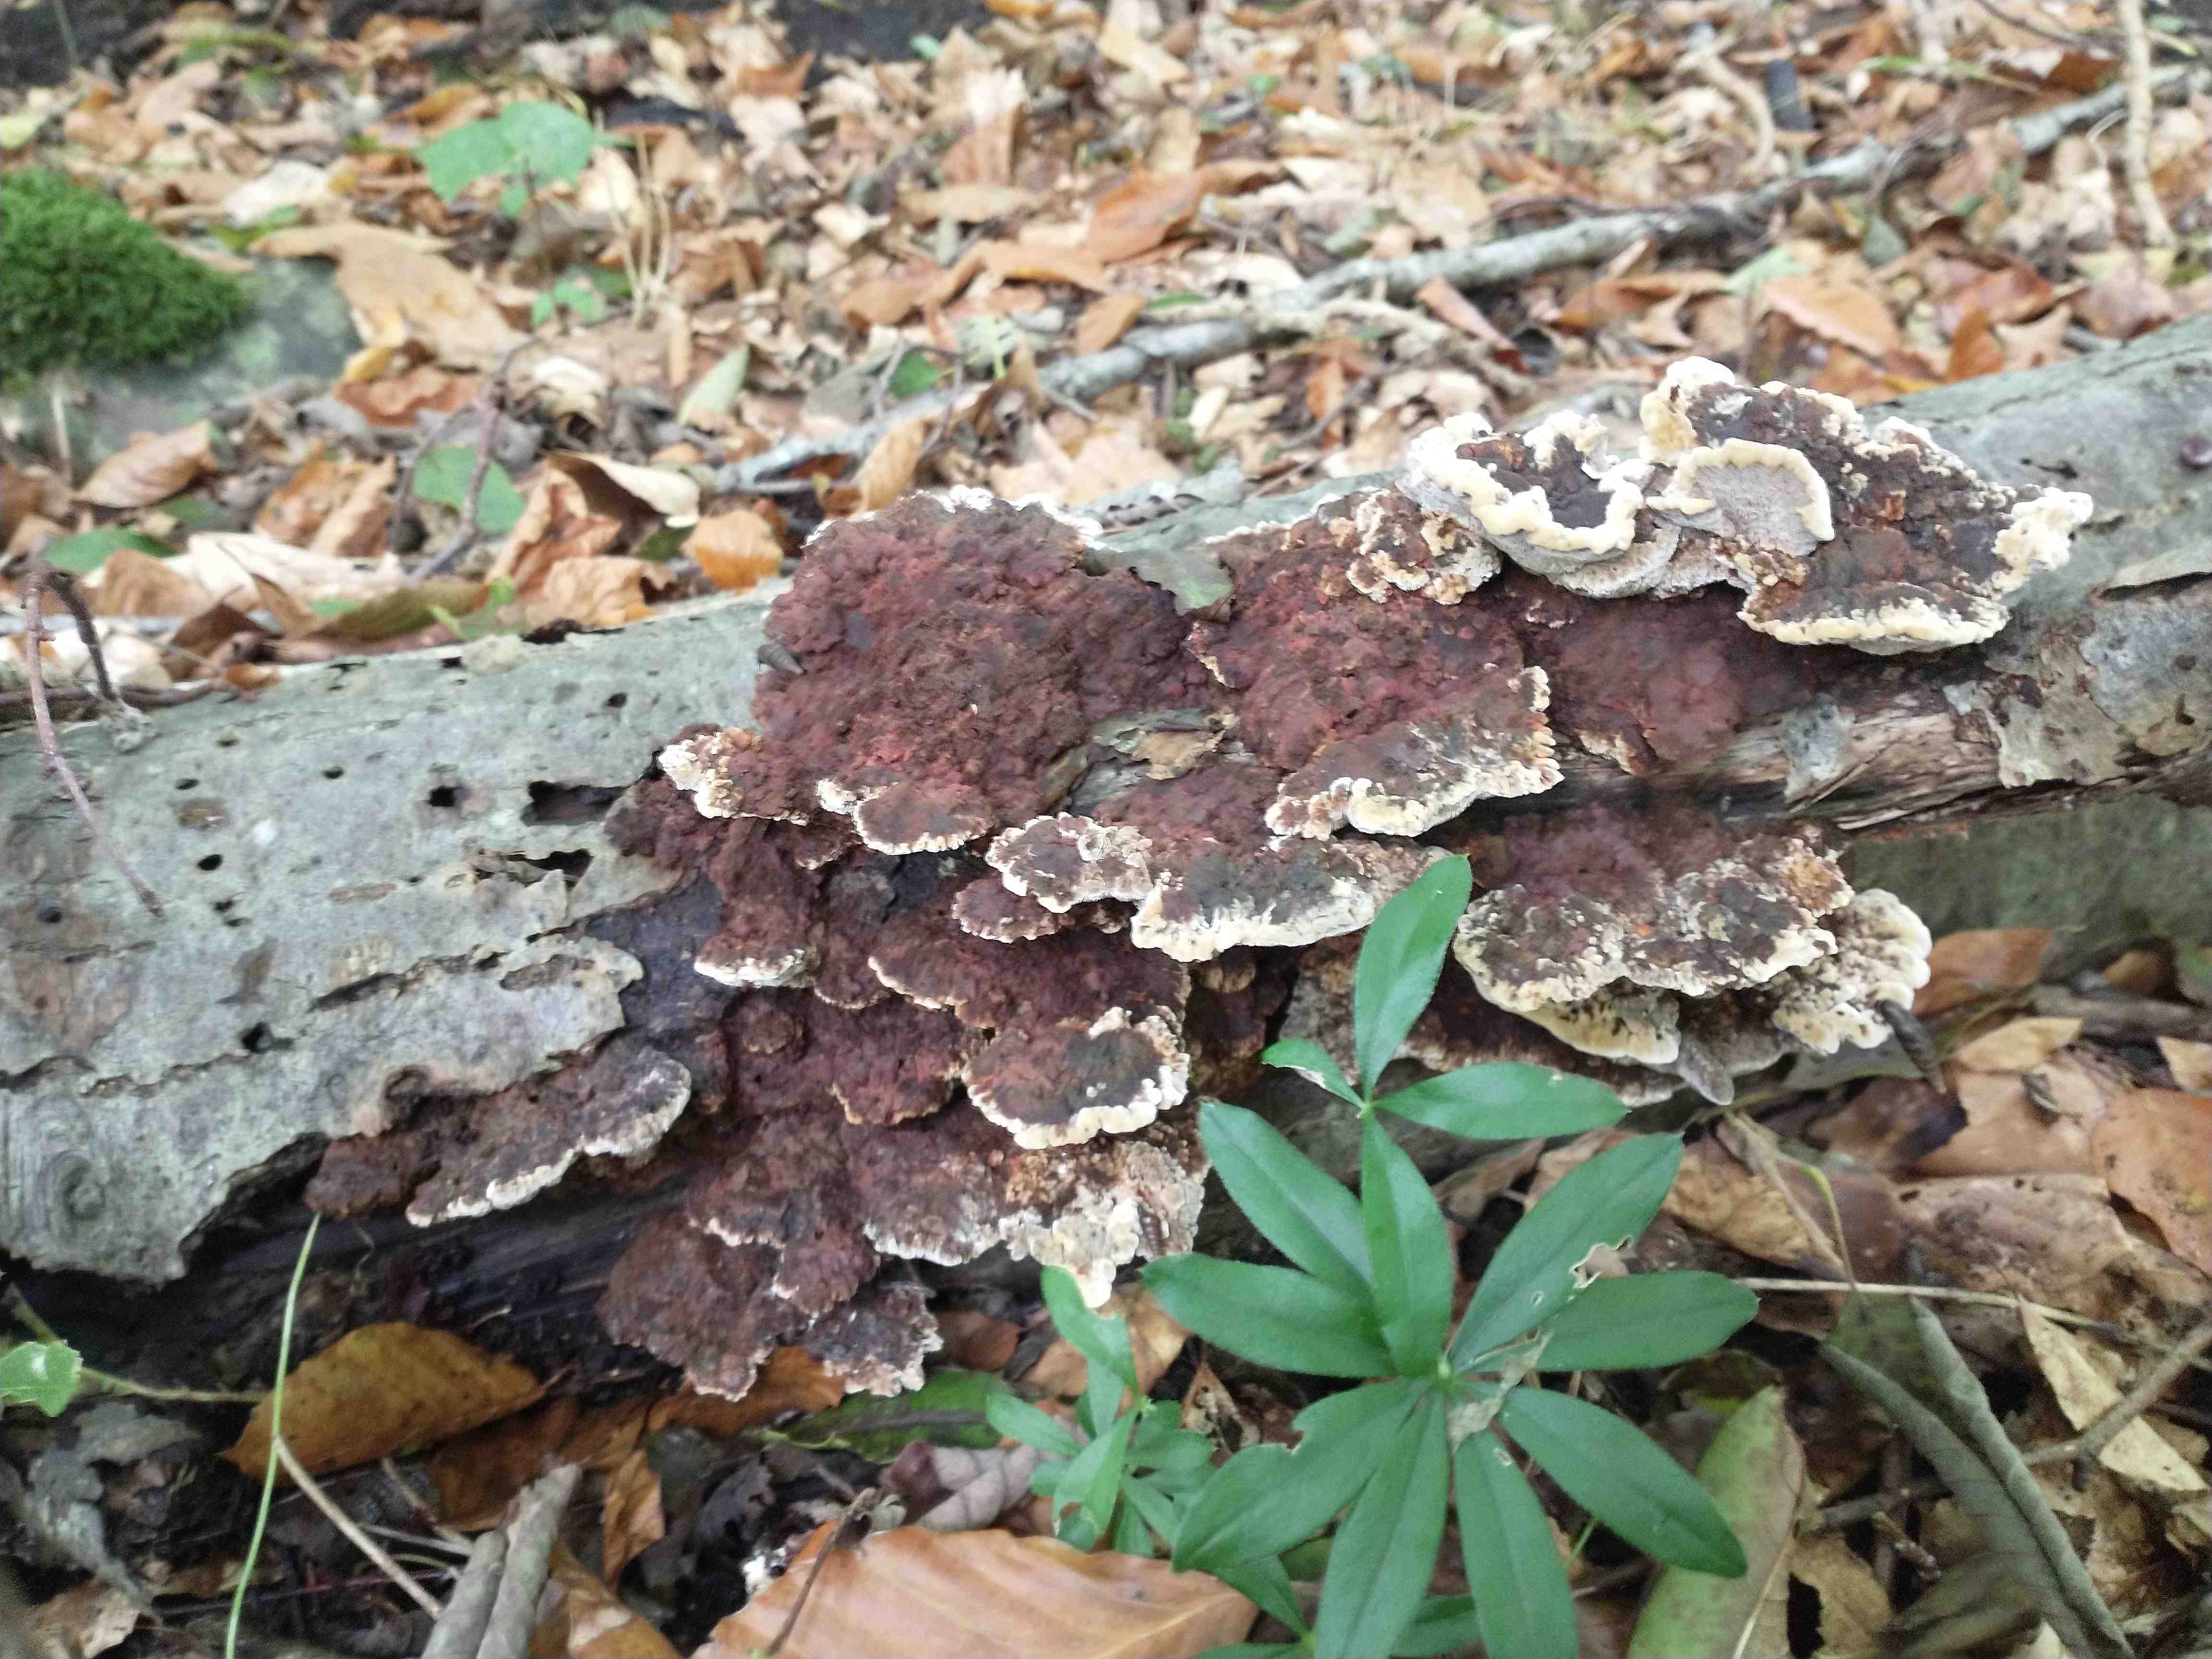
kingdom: Fungi
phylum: Basidiomycota
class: Agaricomycetes
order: Hymenochaetales
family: Hymenochaetaceae
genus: Xanthoporia
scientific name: Xanthoporia radiata
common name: elle-spejlporesvamp
